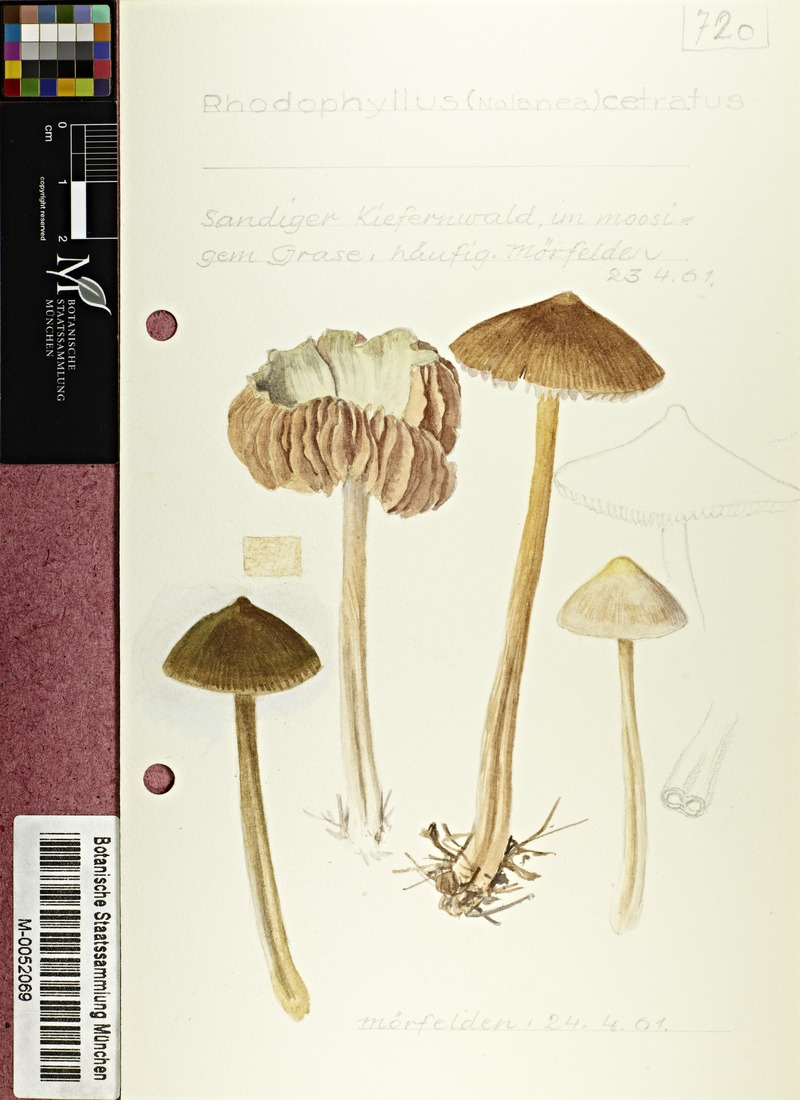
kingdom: Fungi
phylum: Basidiomycota
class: Agaricomycetes
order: Agaricales
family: Entolomataceae
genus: Entoloma
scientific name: Entoloma cetratum
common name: Honey pinkgill
